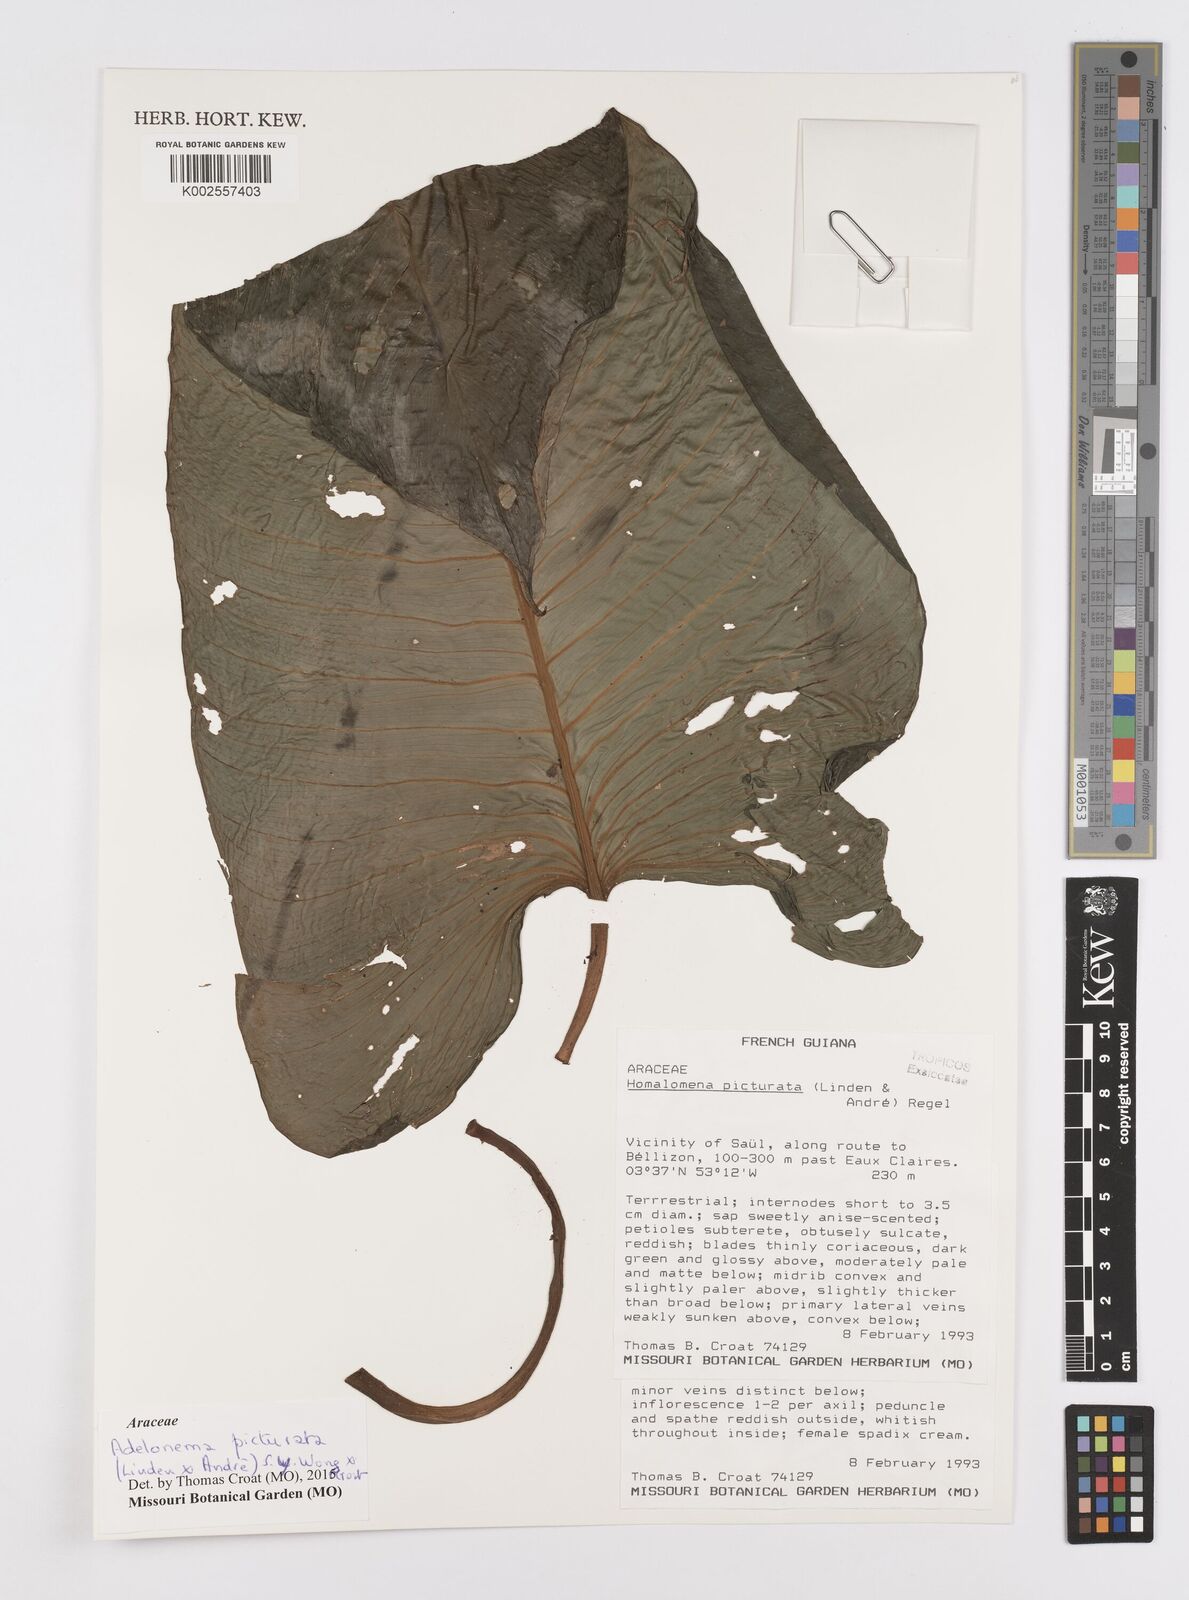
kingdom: Plantae
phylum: Tracheophyta
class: Liliopsida
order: Alismatales
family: Araceae
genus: Adelonema
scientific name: Adelonema picturatum
